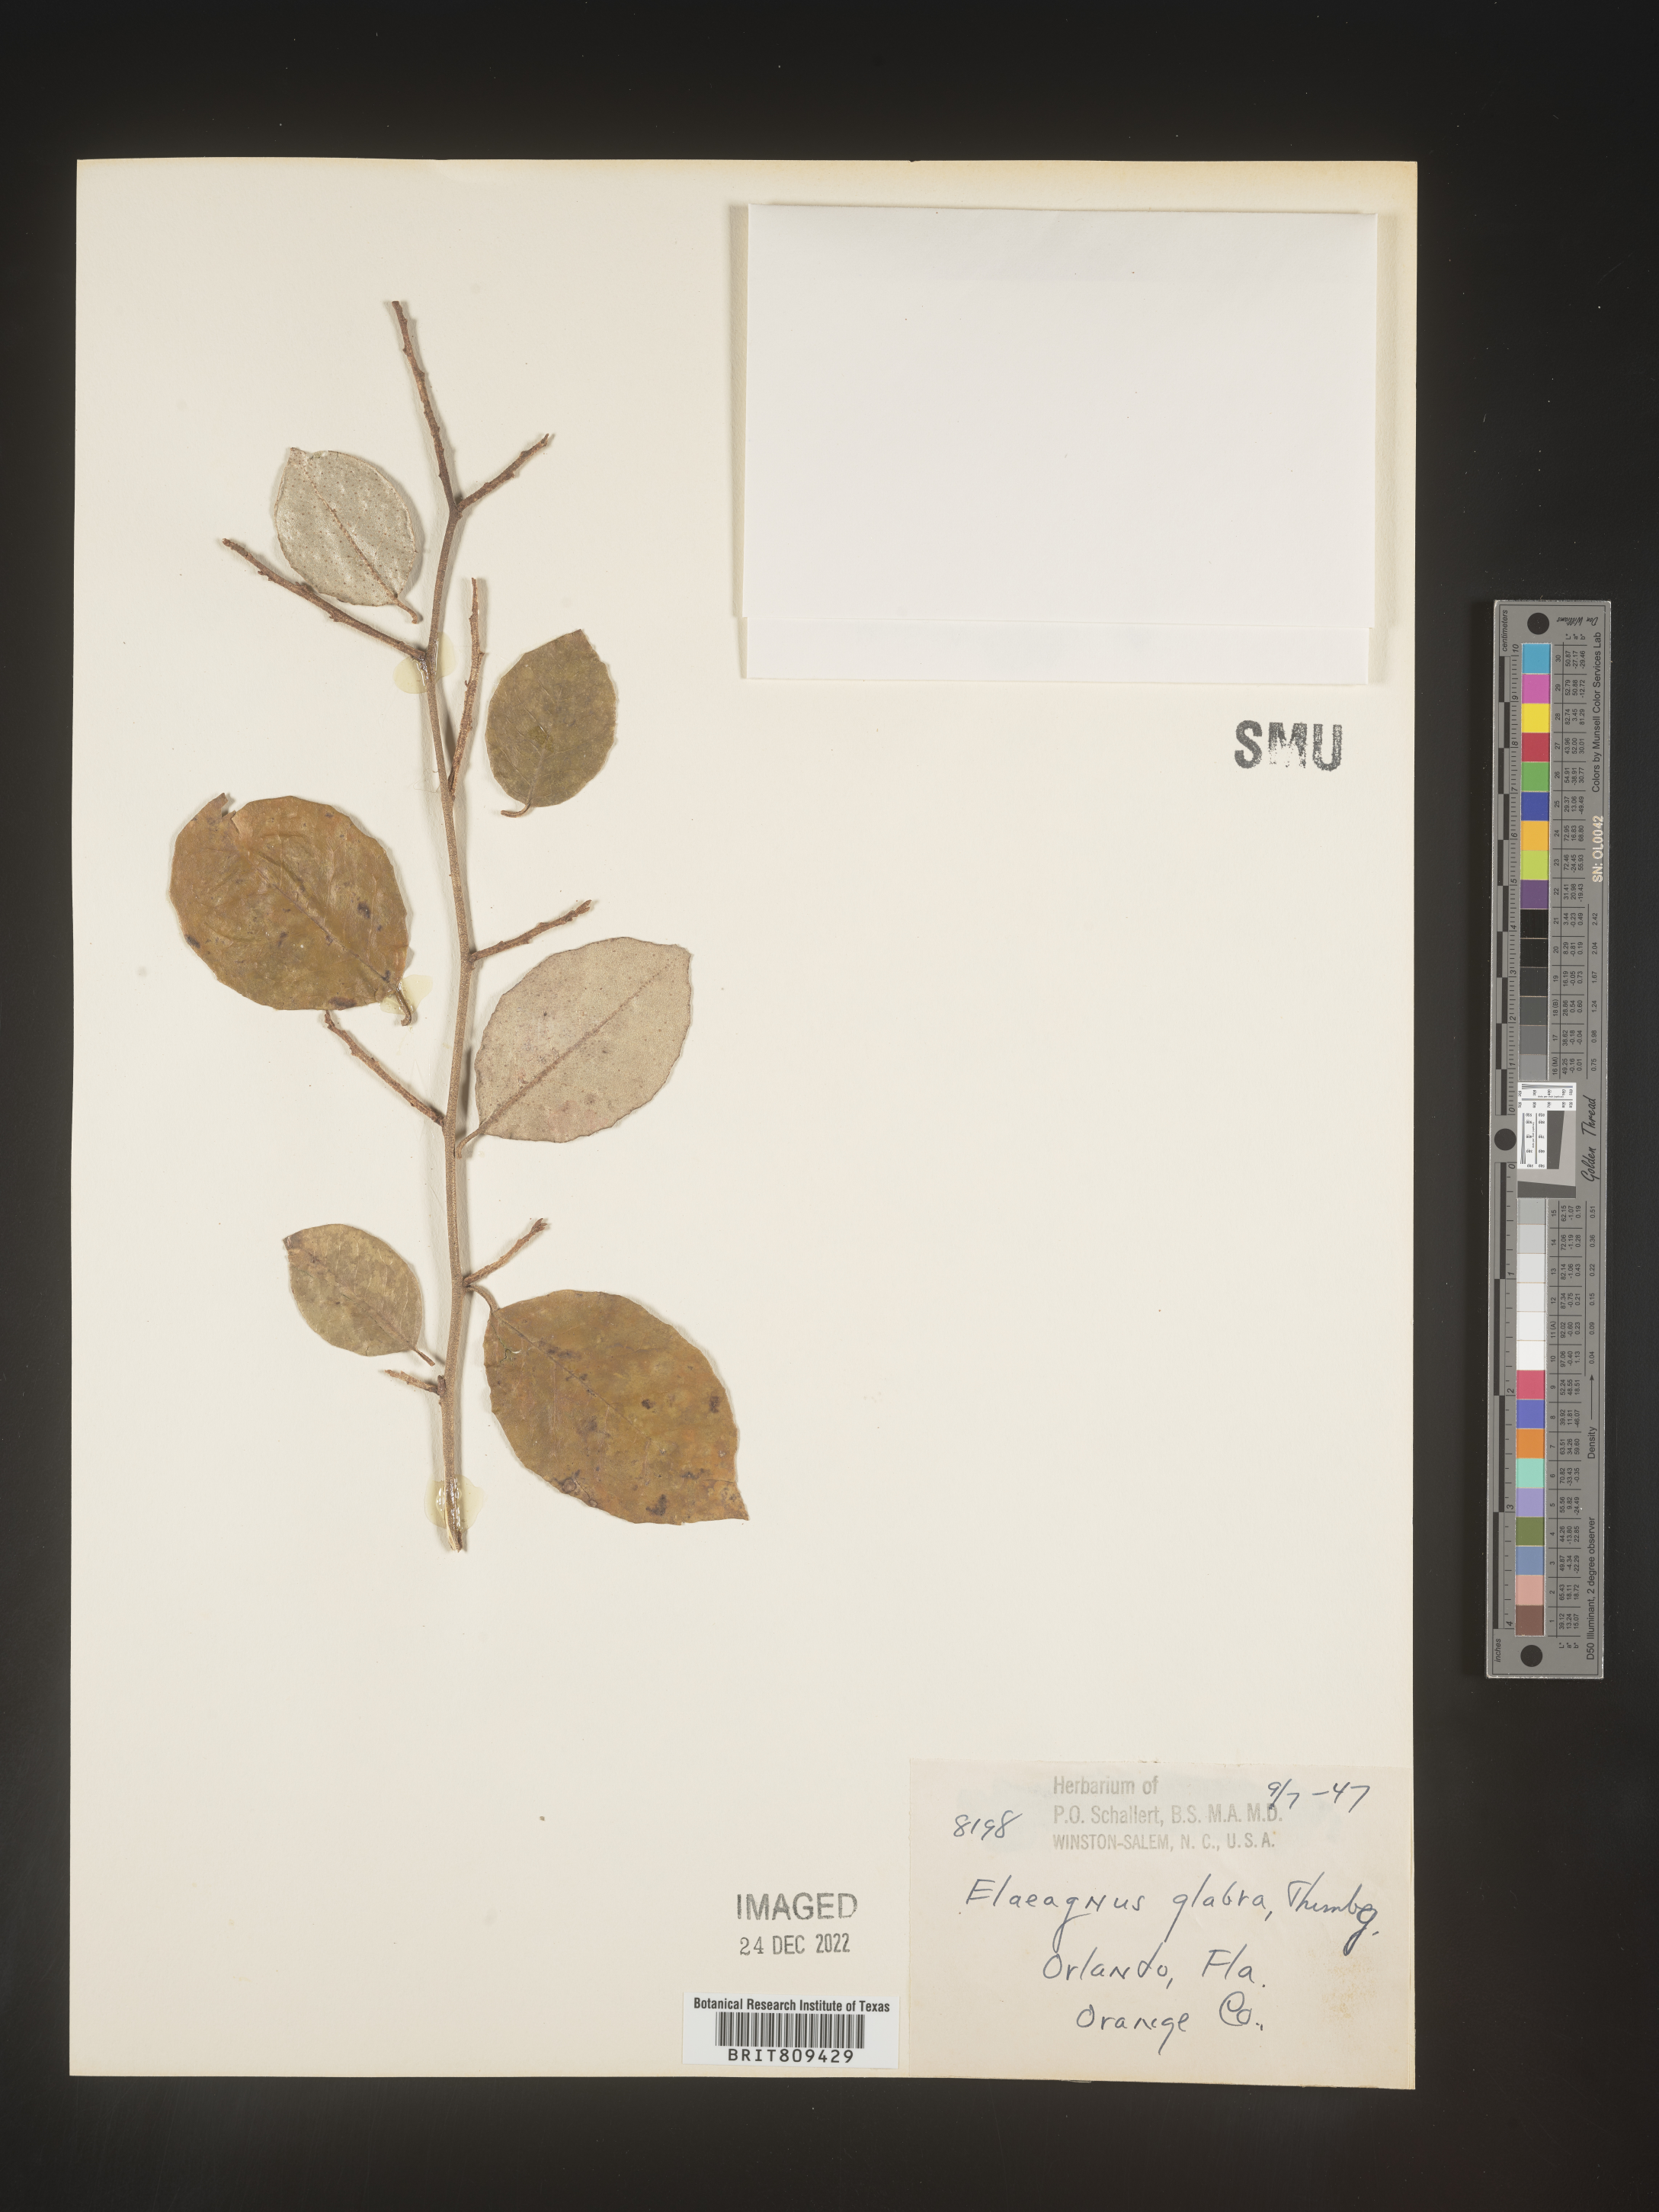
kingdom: Plantae
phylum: Tracheophyta
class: Magnoliopsida
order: Rosales
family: Elaeagnaceae
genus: Elaeagnus
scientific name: Elaeagnus
